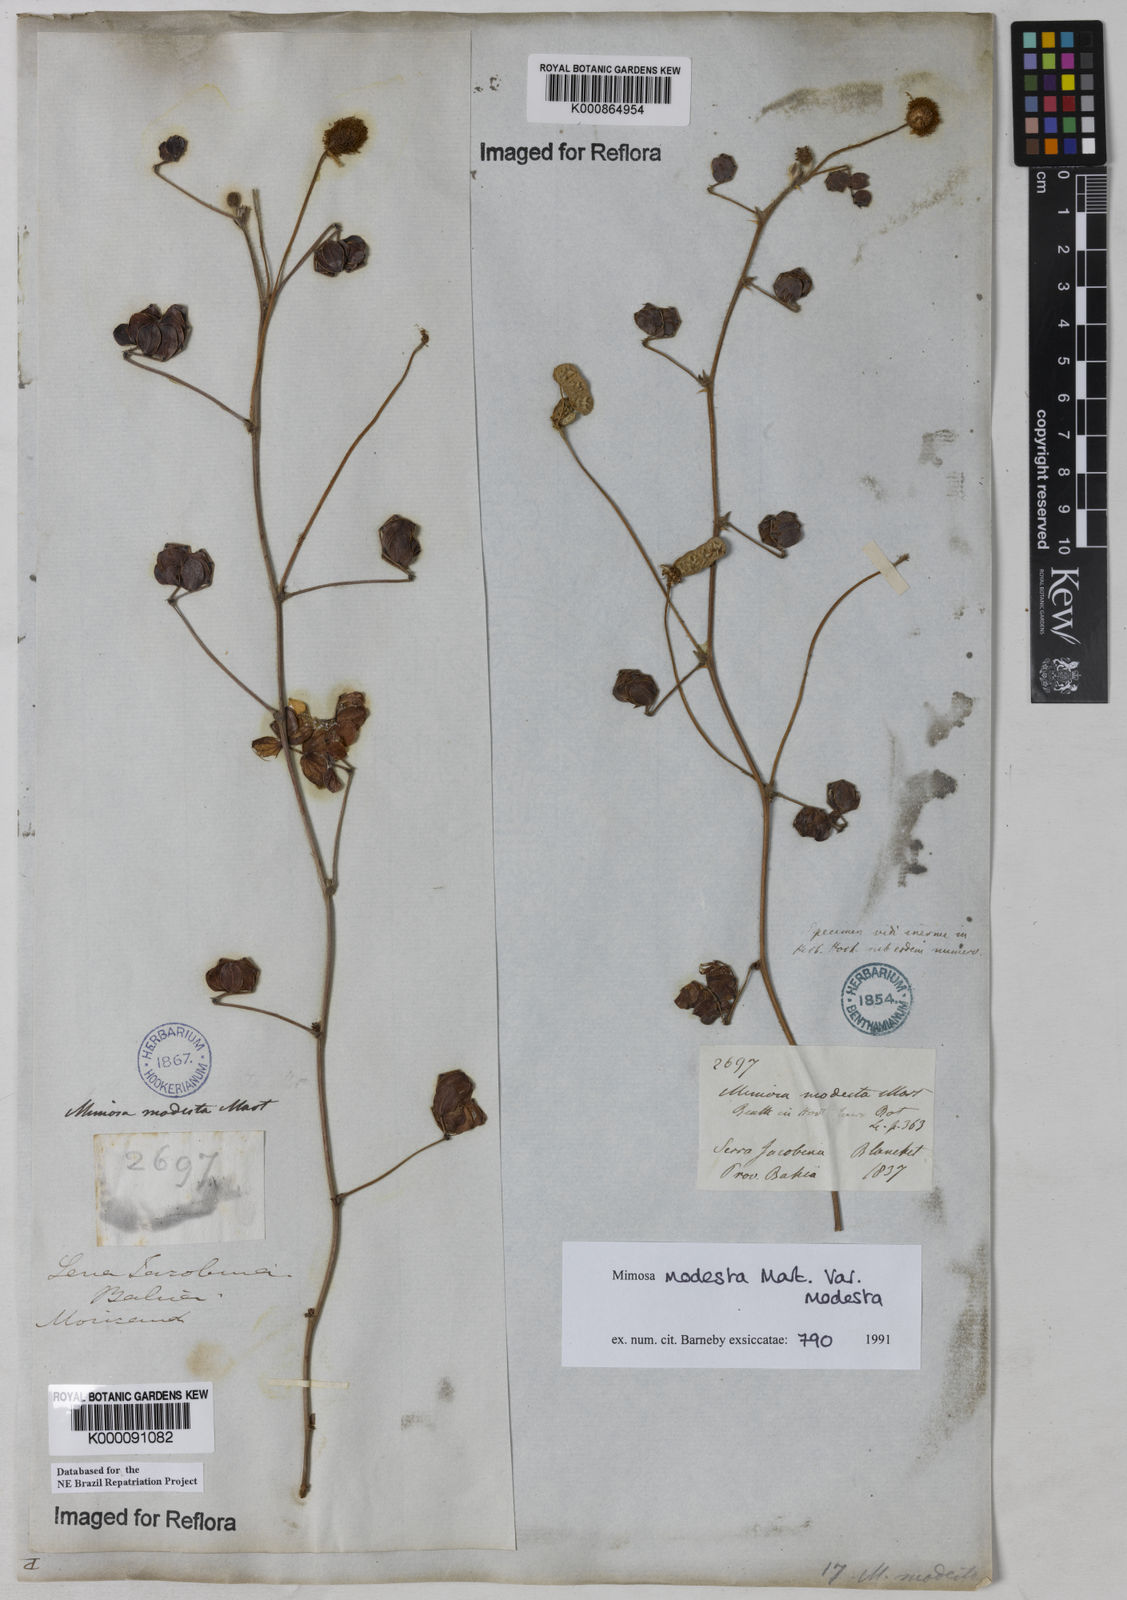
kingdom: Plantae
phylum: Tracheophyta
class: Magnoliopsida
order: Fabales
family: Fabaceae
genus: Mimosa
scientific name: Mimosa modesta
